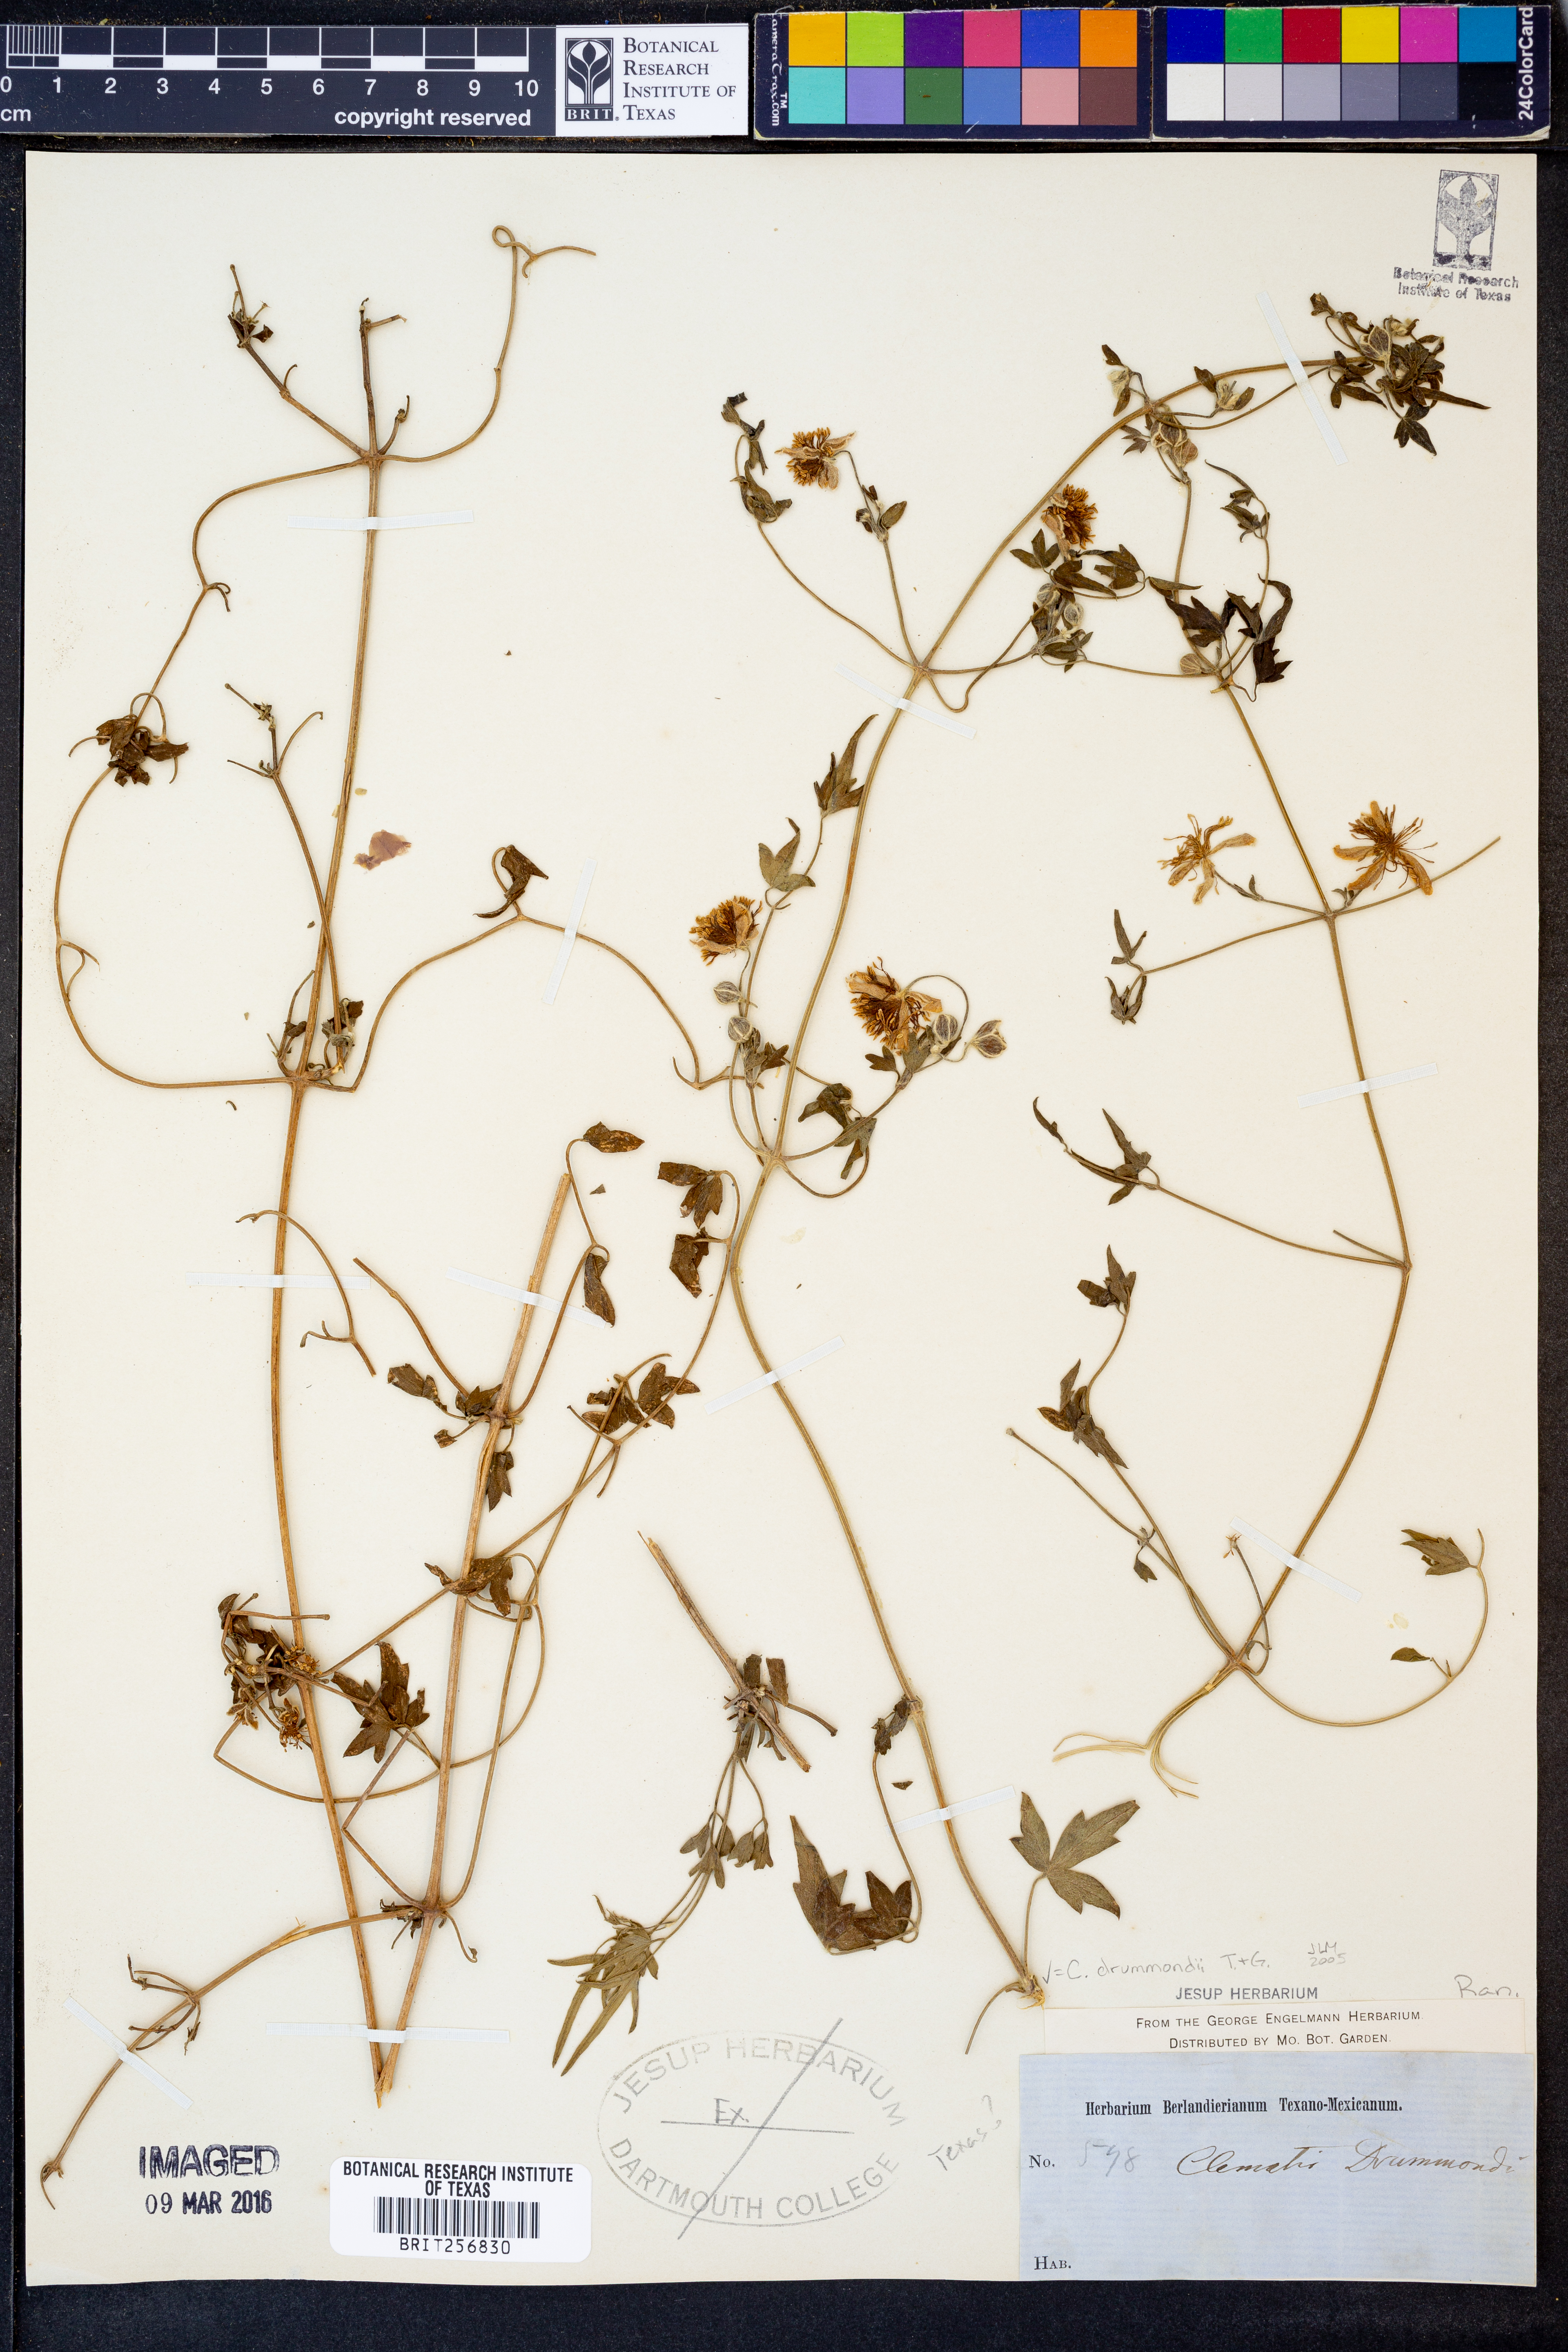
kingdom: Plantae
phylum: Tracheophyta
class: Magnoliopsida
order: Ranunculales
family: Ranunculaceae
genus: Clematis
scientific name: Clematis drummondii
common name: Texas virgin's bower
